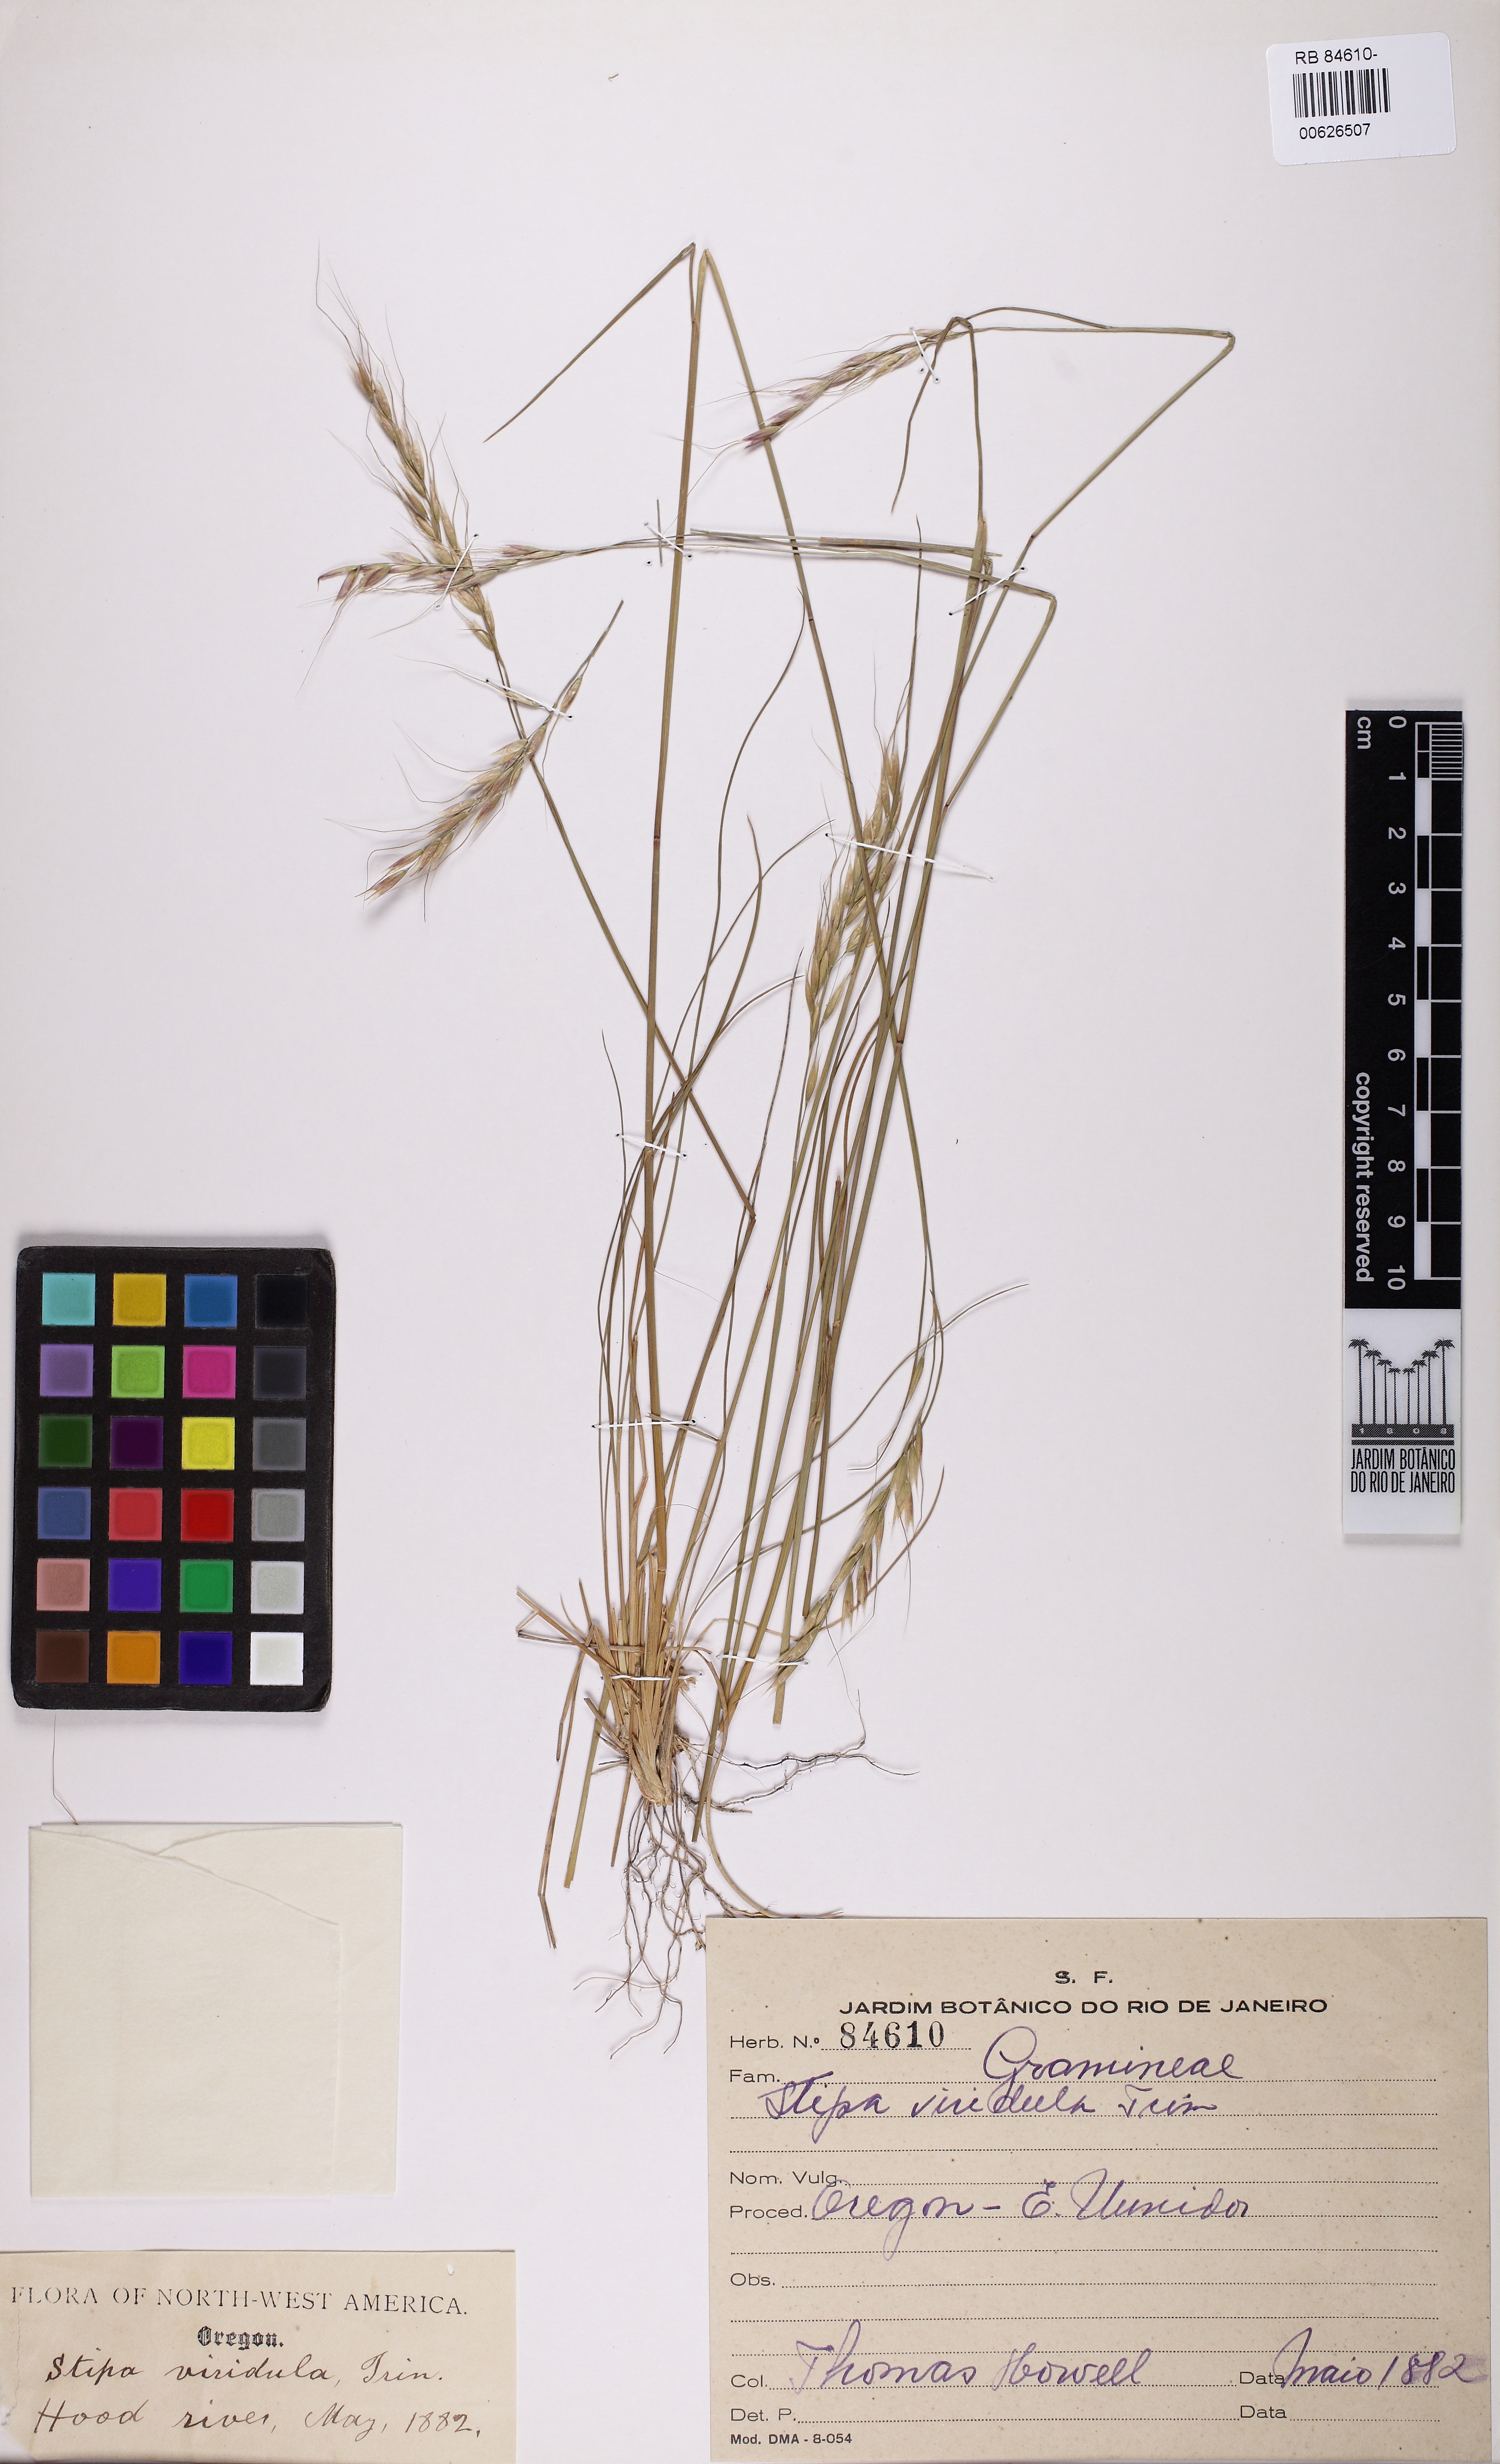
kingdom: Plantae
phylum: Tracheophyta
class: Liliopsida
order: Poales
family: Poaceae
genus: Nassella
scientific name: Nassella viridula
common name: Green needlegrass
